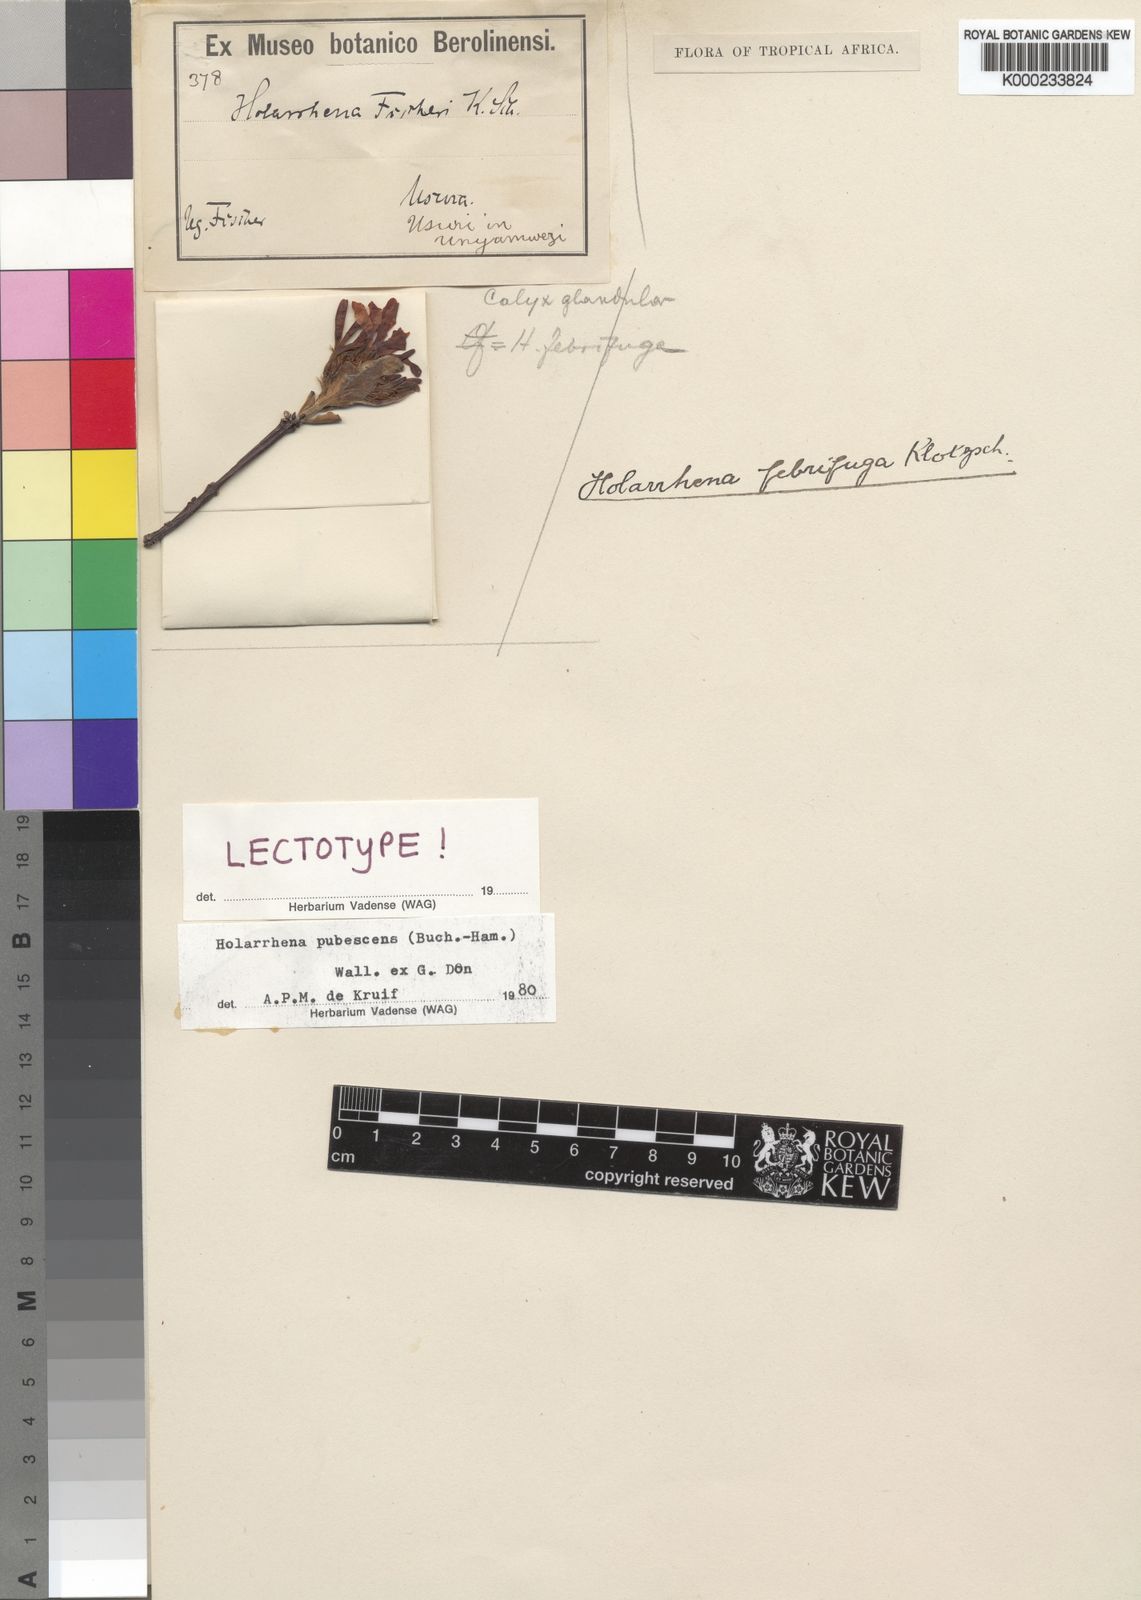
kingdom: Plantae
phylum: Tracheophyta
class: Magnoliopsida
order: Gentianales
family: Apocynaceae
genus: Holarrhena
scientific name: Holarrhena pubescens
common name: Bitter oleander
